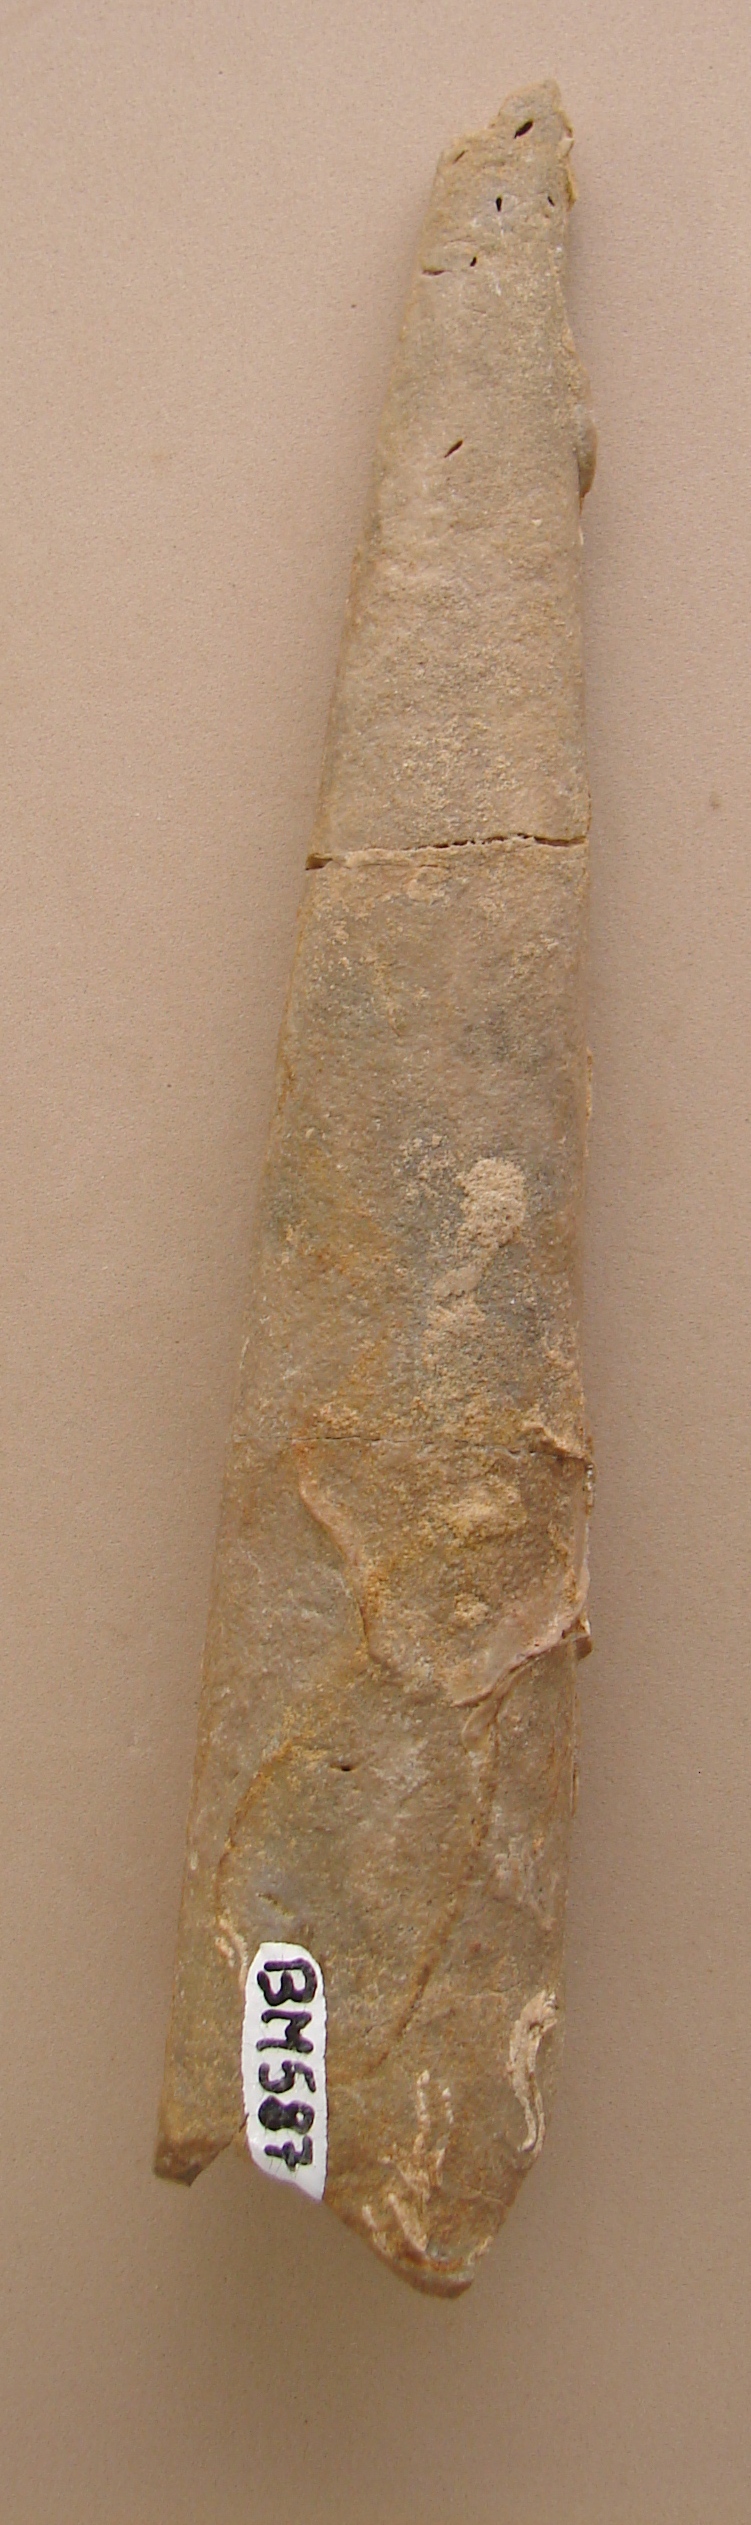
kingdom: Animalia
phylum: Mollusca
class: Cephalopoda
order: Belemnitida
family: Megateuthididae
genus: Megateuthis
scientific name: Megateuthis
